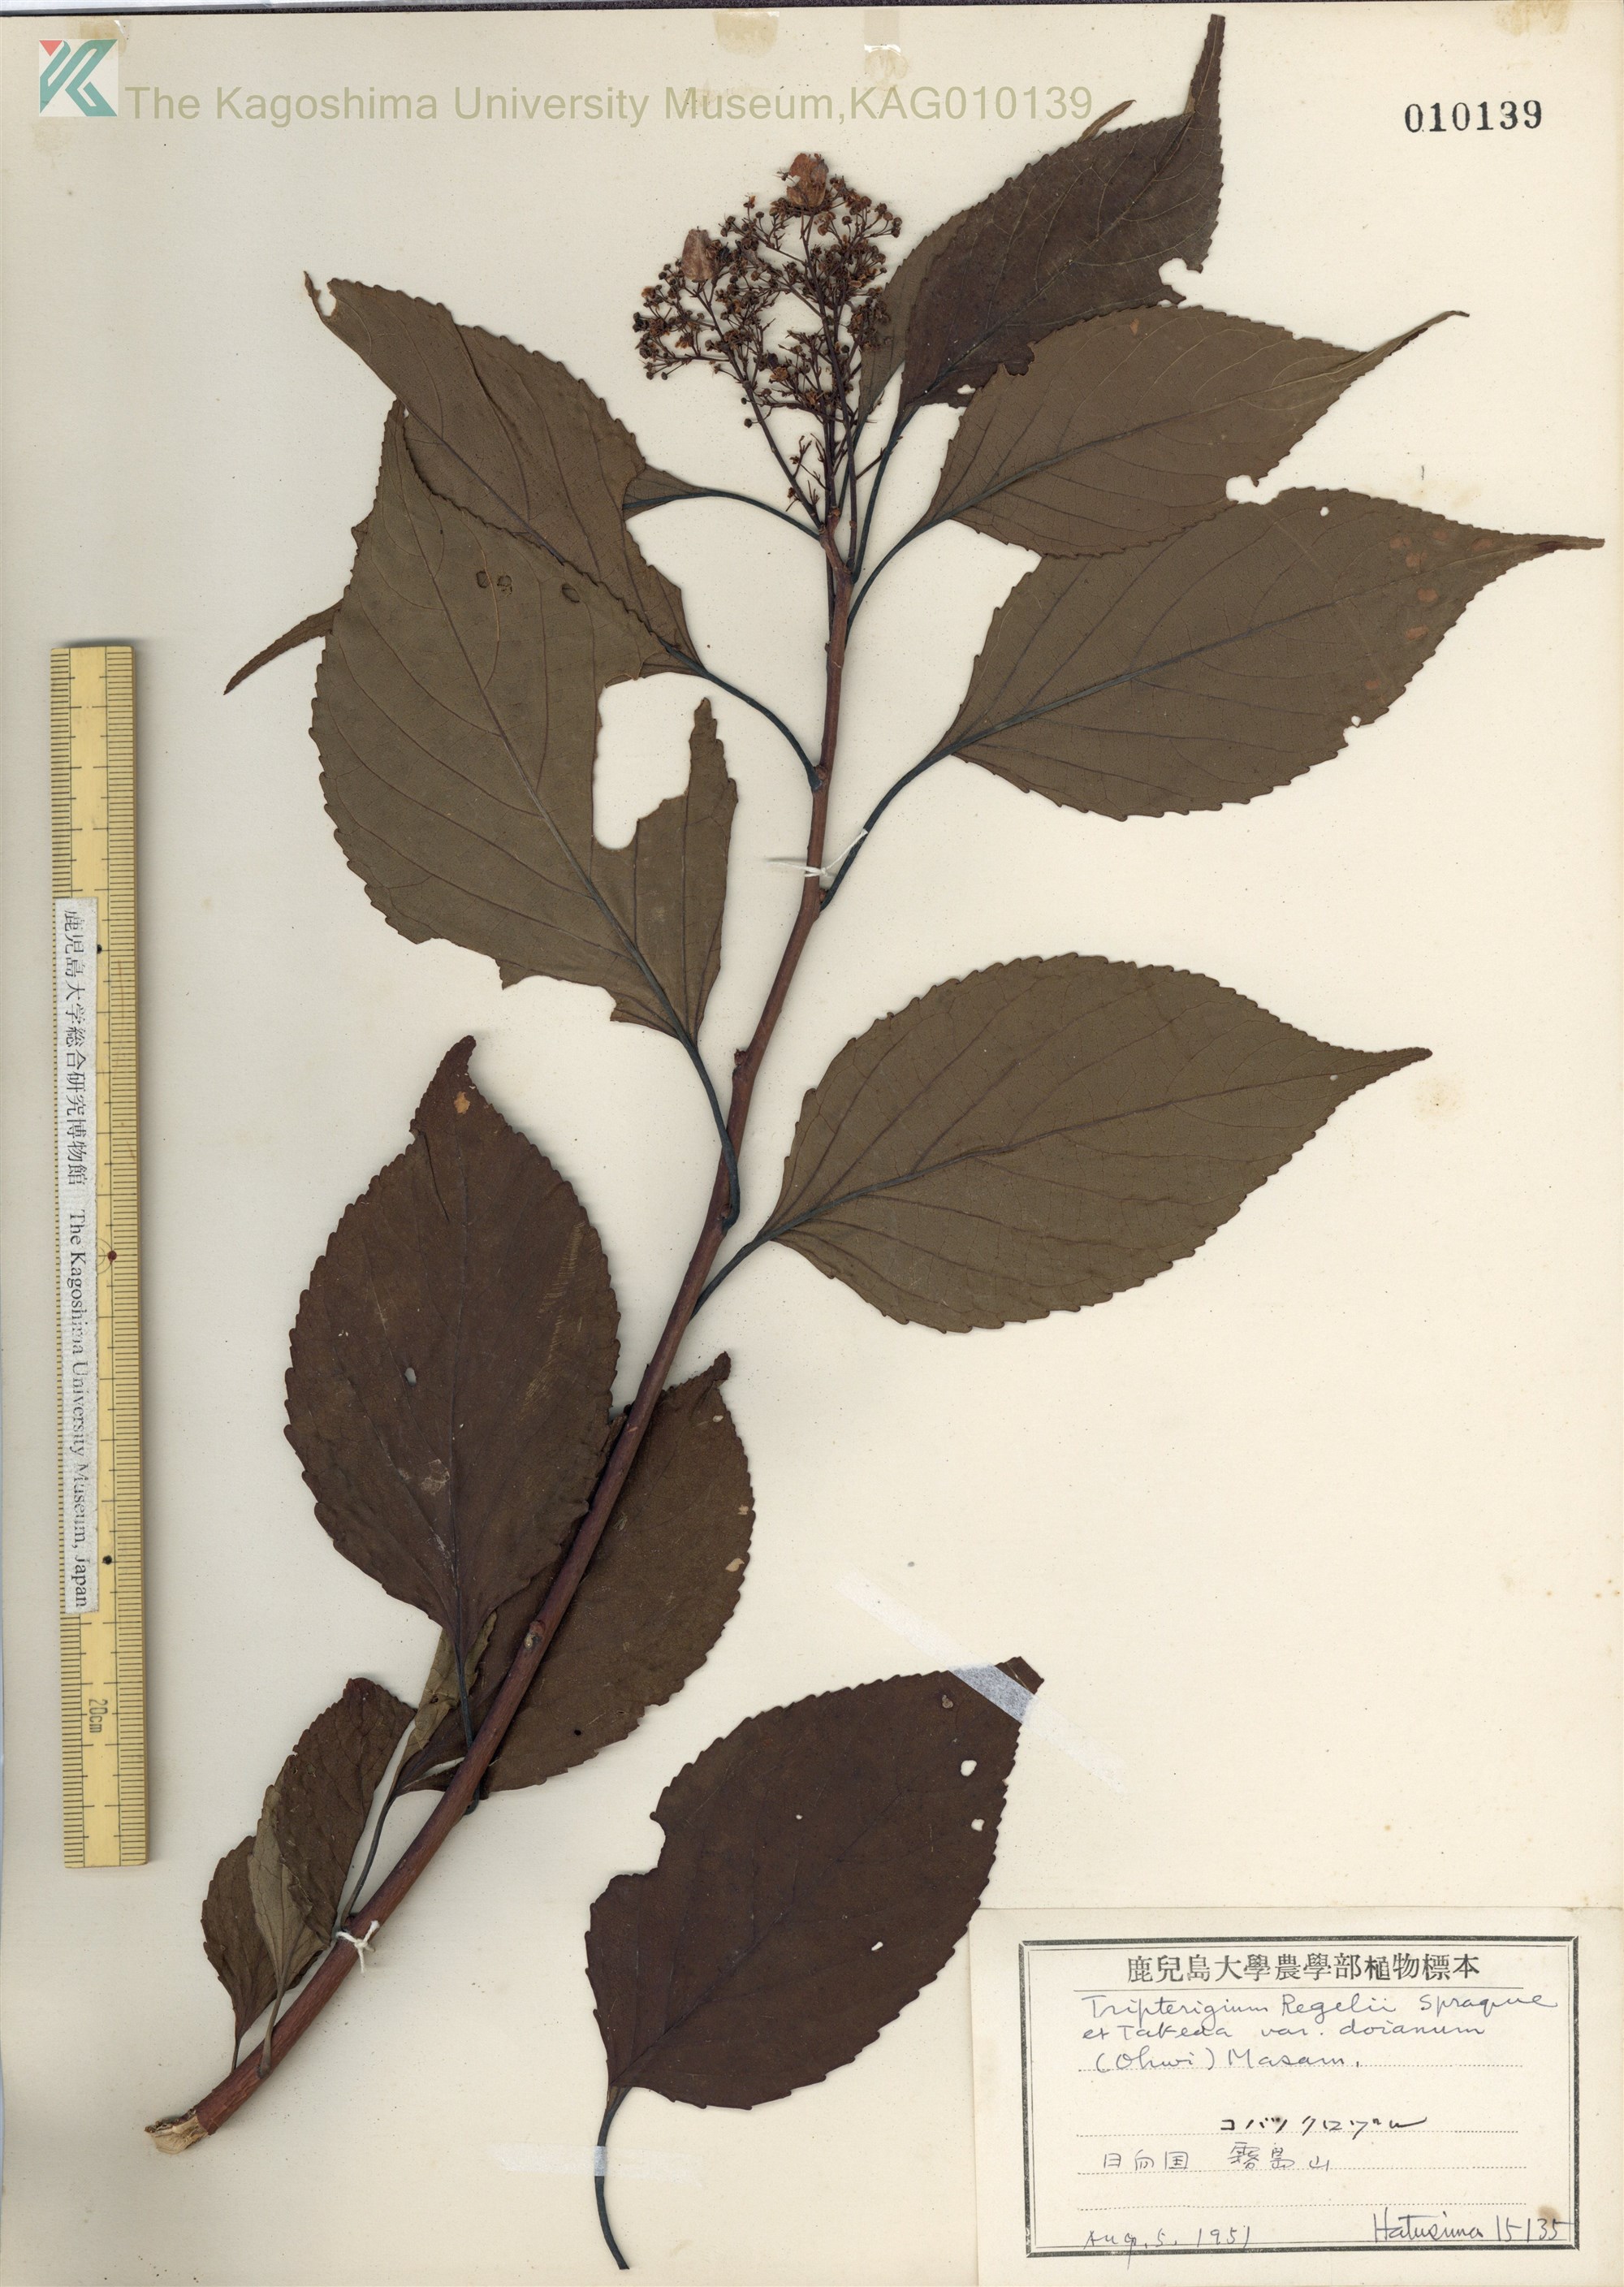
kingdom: Plantae
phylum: Tracheophyta
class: Magnoliopsida
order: Celastrales
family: Celastraceae
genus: Tripterygium
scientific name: Tripterygium doianum
